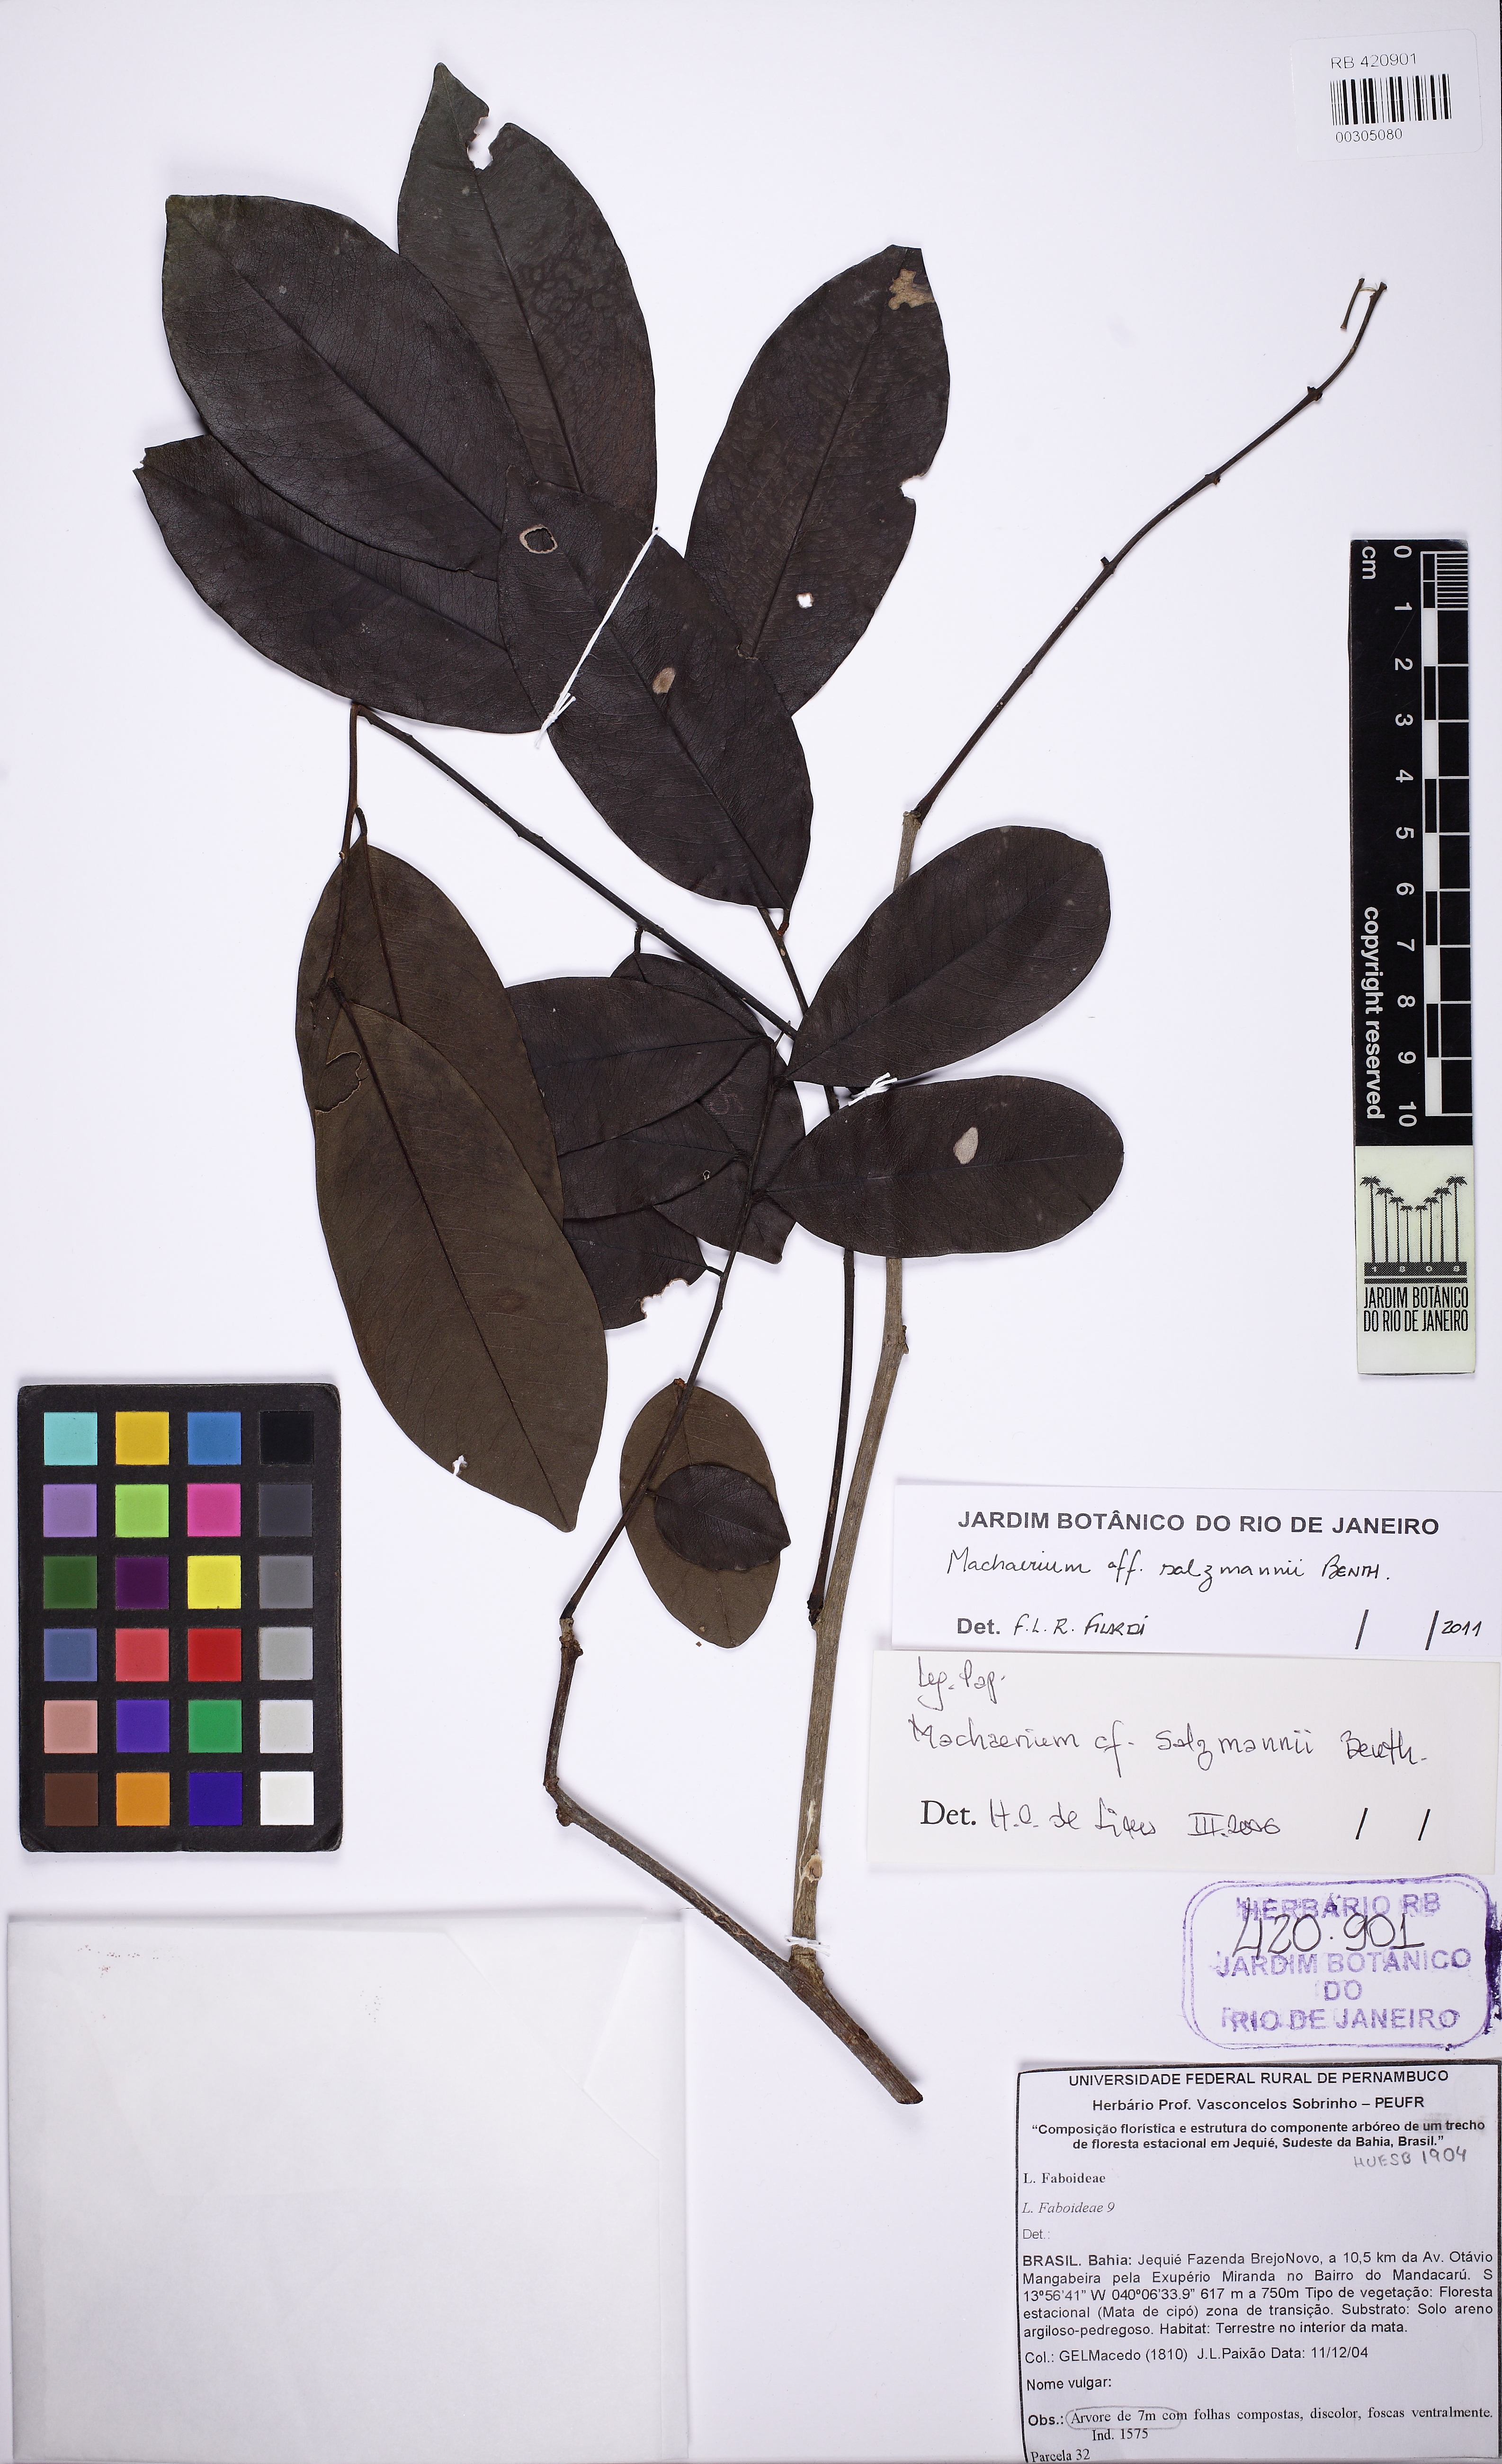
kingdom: Plantae
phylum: Tracheophyta
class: Magnoliopsida
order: Fabales
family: Fabaceae
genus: Machaerium
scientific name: Machaerium salzmannii
